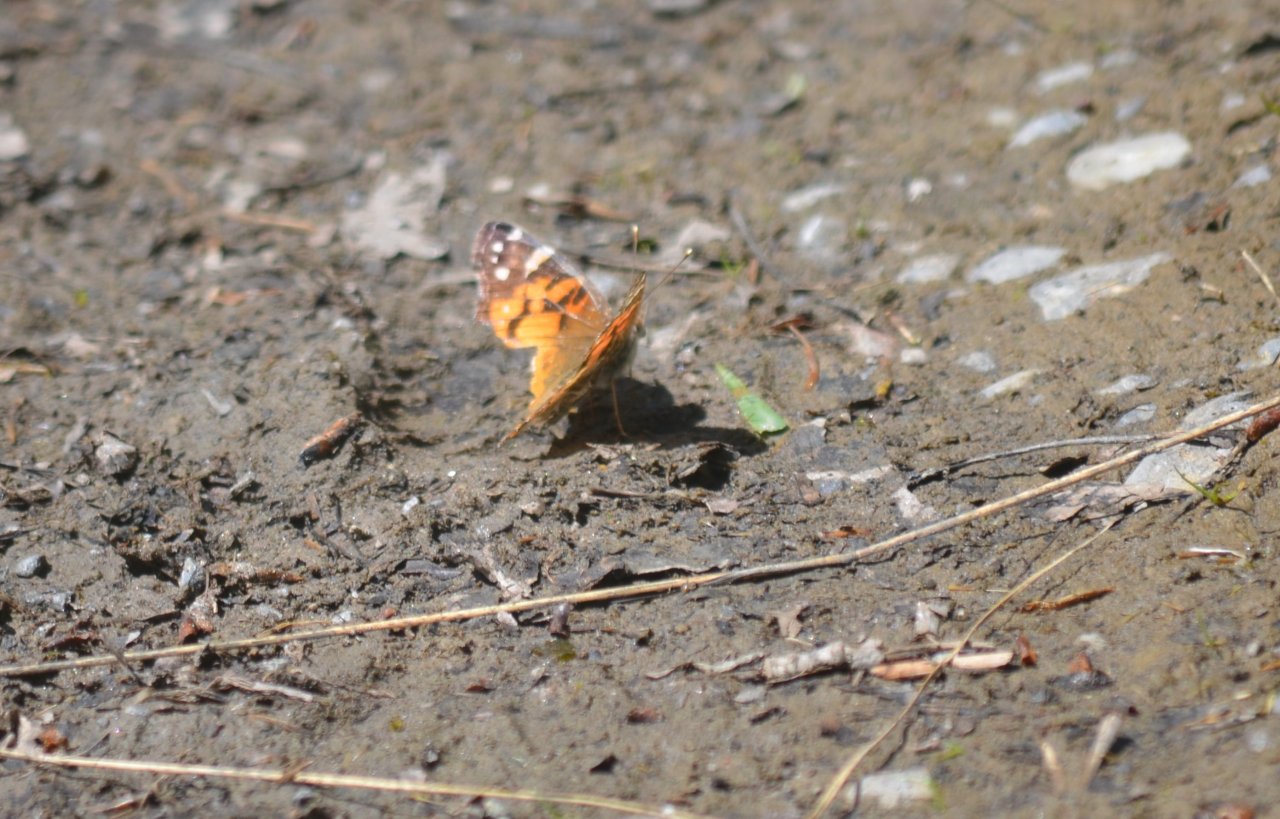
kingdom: Animalia
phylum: Arthropoda
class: Insecta
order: Lepidoptera
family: Nymphalidae
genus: Vanessa
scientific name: Vanessa virginiensis
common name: American Lady
